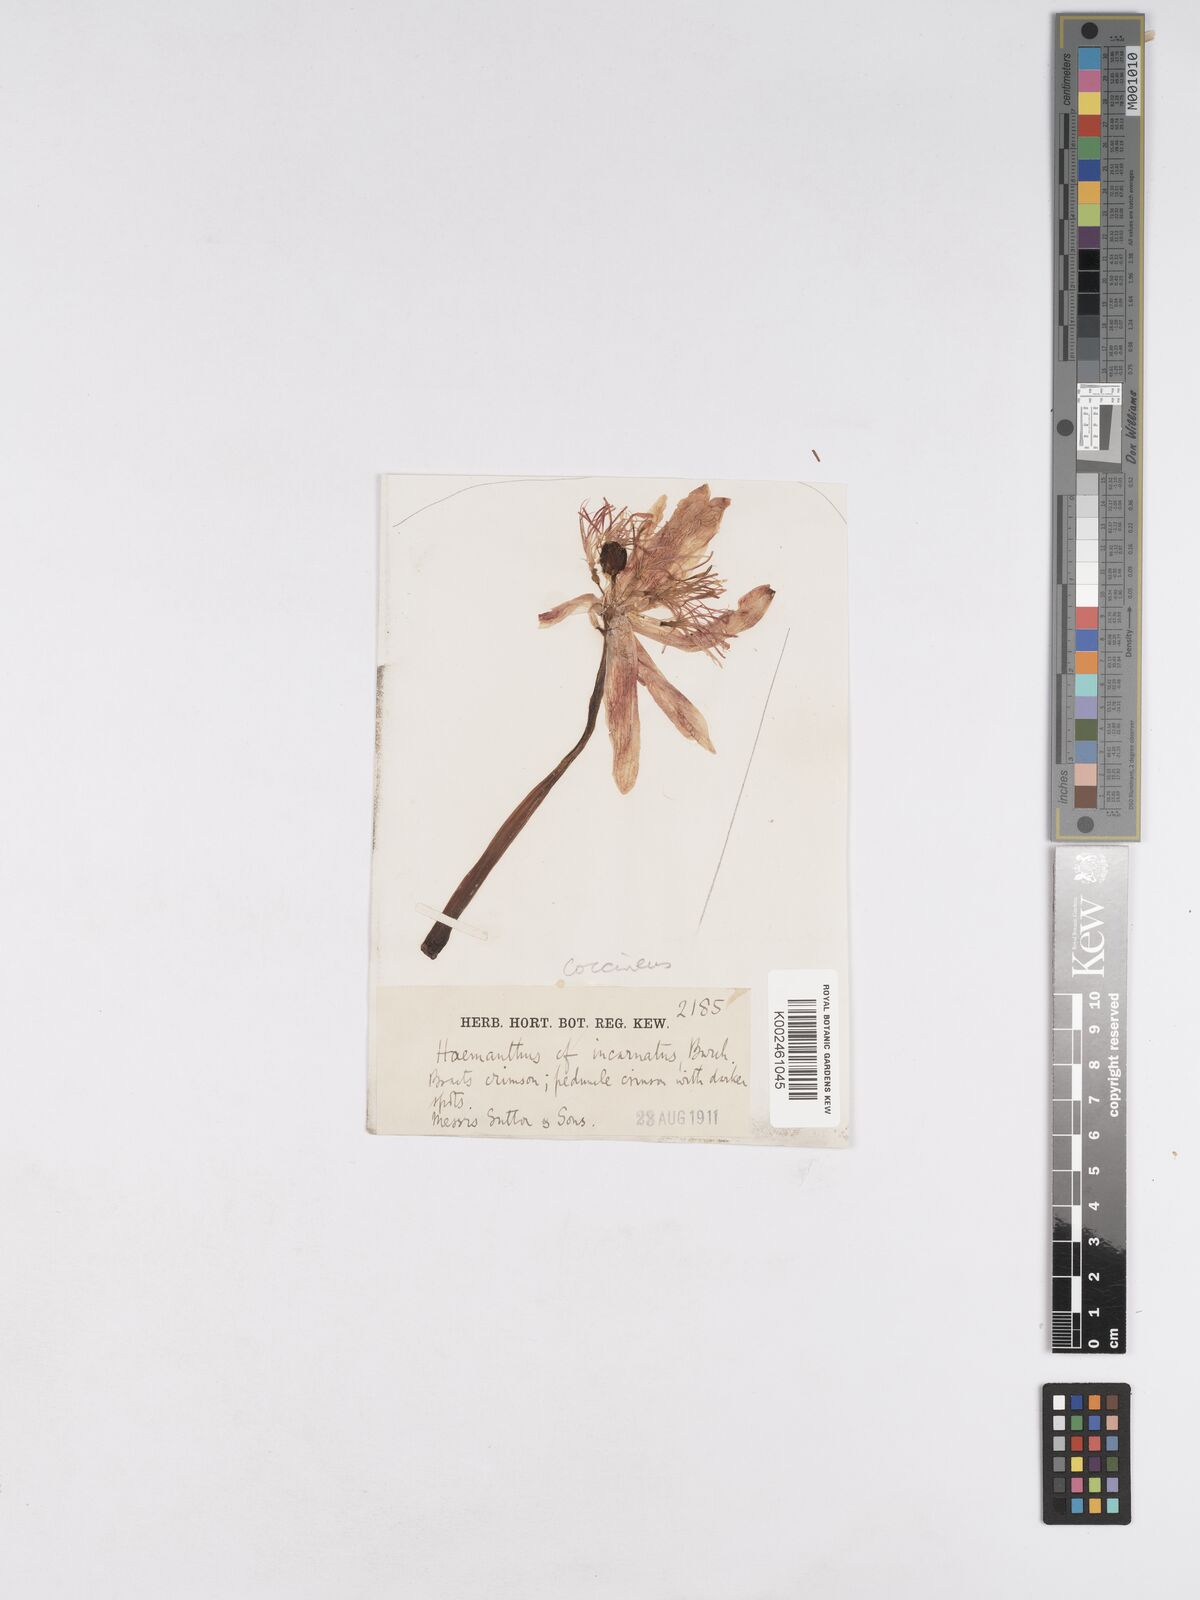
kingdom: Plantae
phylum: Tracheophyta
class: Liliopsida
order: Asparagales
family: Amaryllidaceae
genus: Haemanthus
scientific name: Haemanthus coccineus
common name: Cape-tulip
